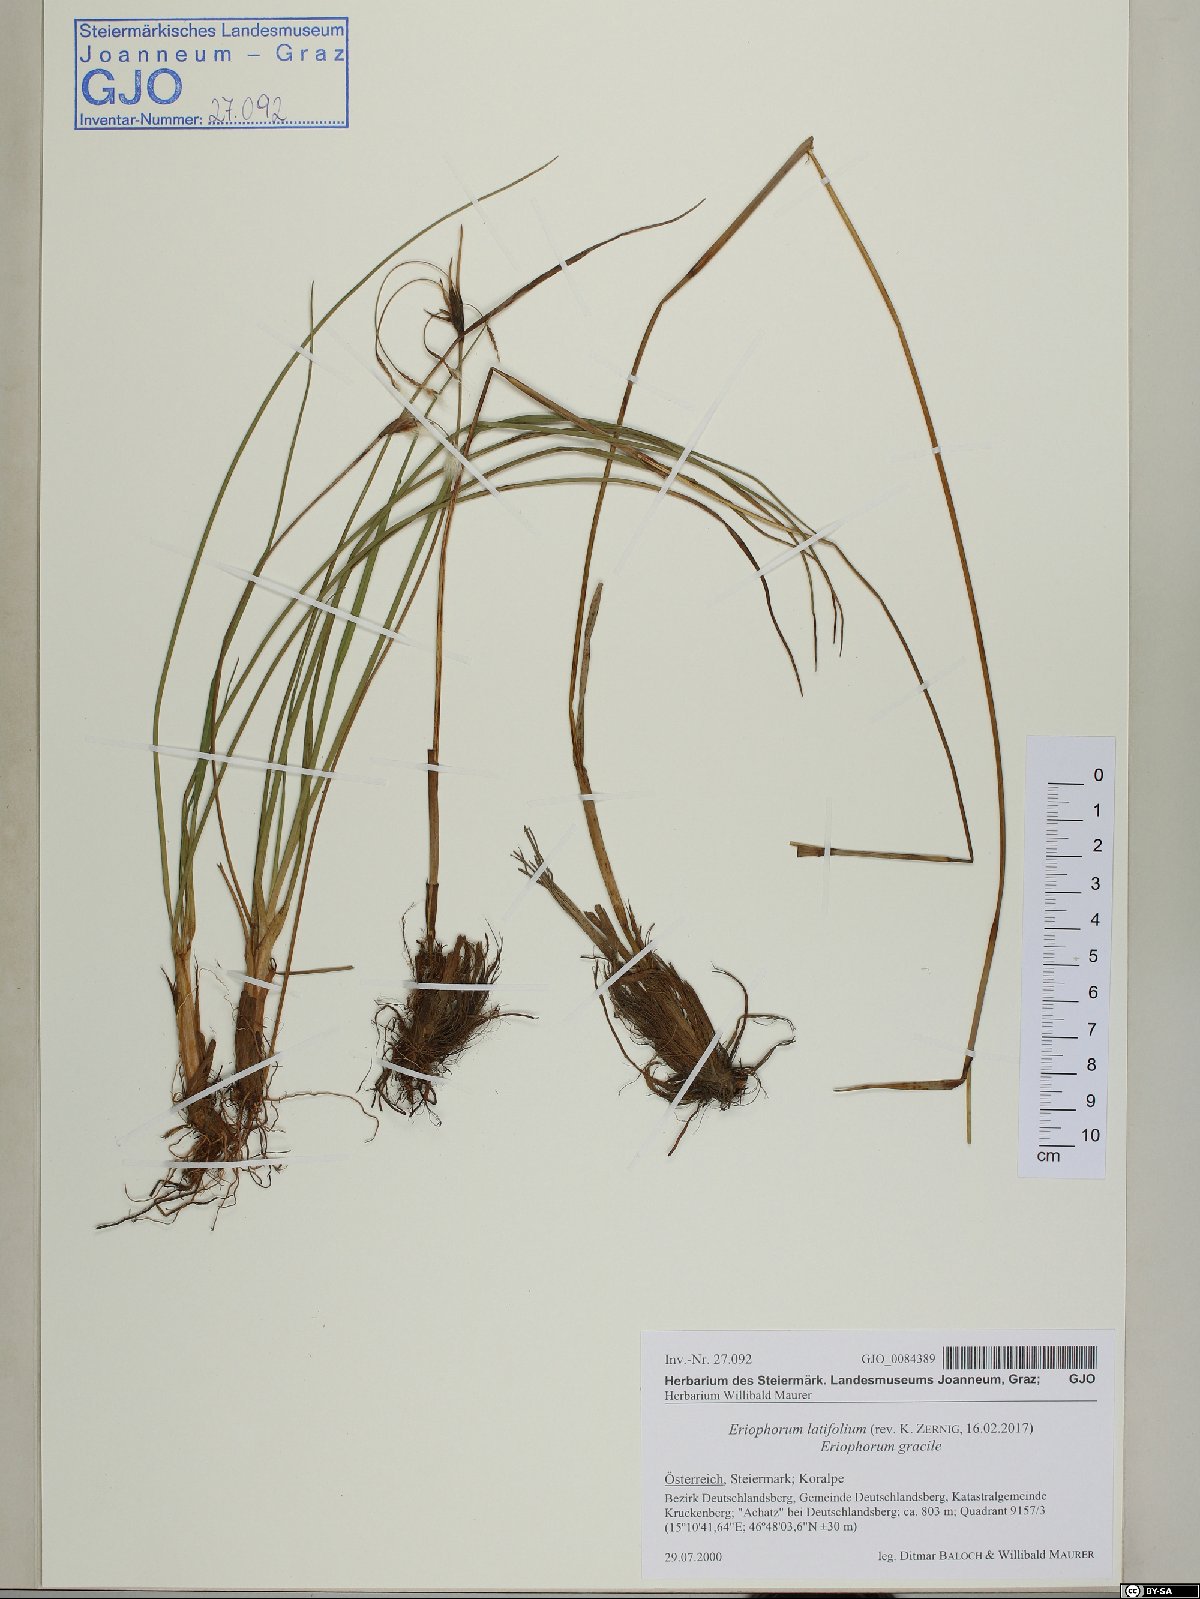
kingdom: Plantae
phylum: Tracheophyta
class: Liliopsida
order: Poales
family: Cyperaceae
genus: Eriophorum
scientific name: Eriophorum latifolium
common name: Broad-leaved cottongrass
